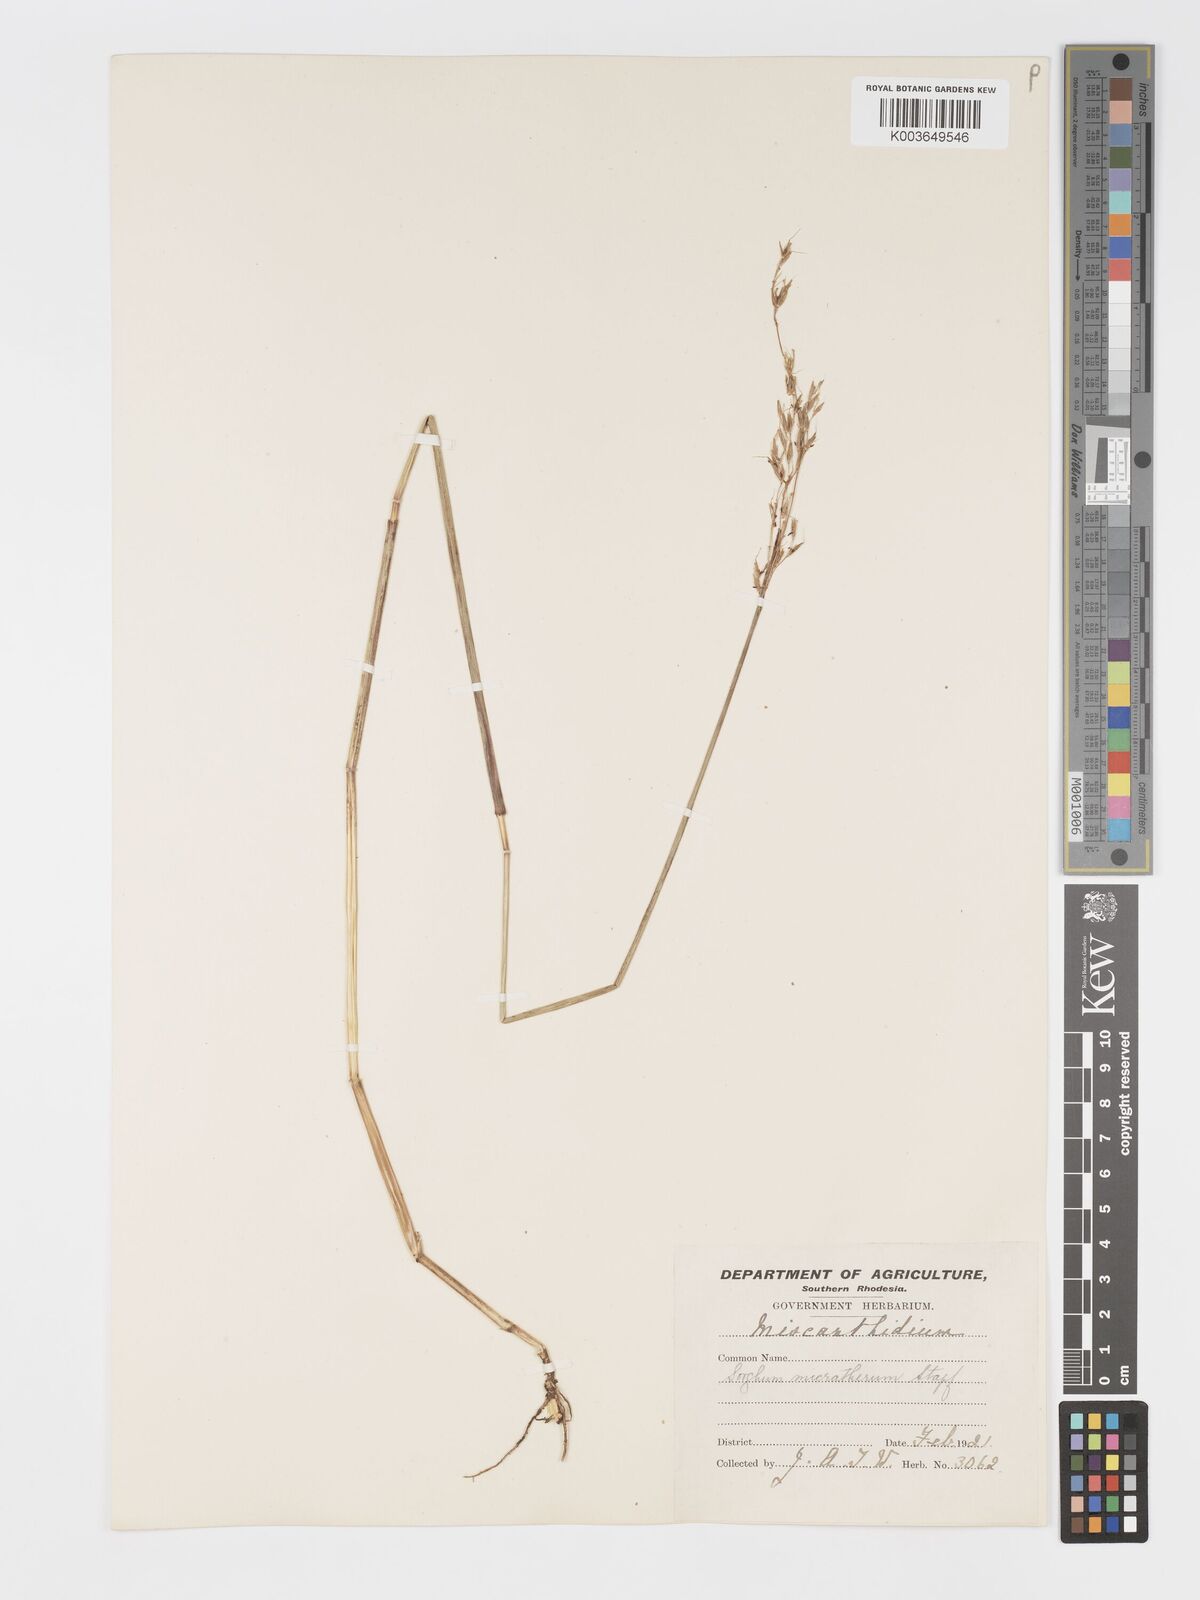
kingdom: Plantae
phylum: Tracheophyta
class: Liliopsida
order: Poales
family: Poaceae
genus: Sorghastrum
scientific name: Sorghastrum nudipes
